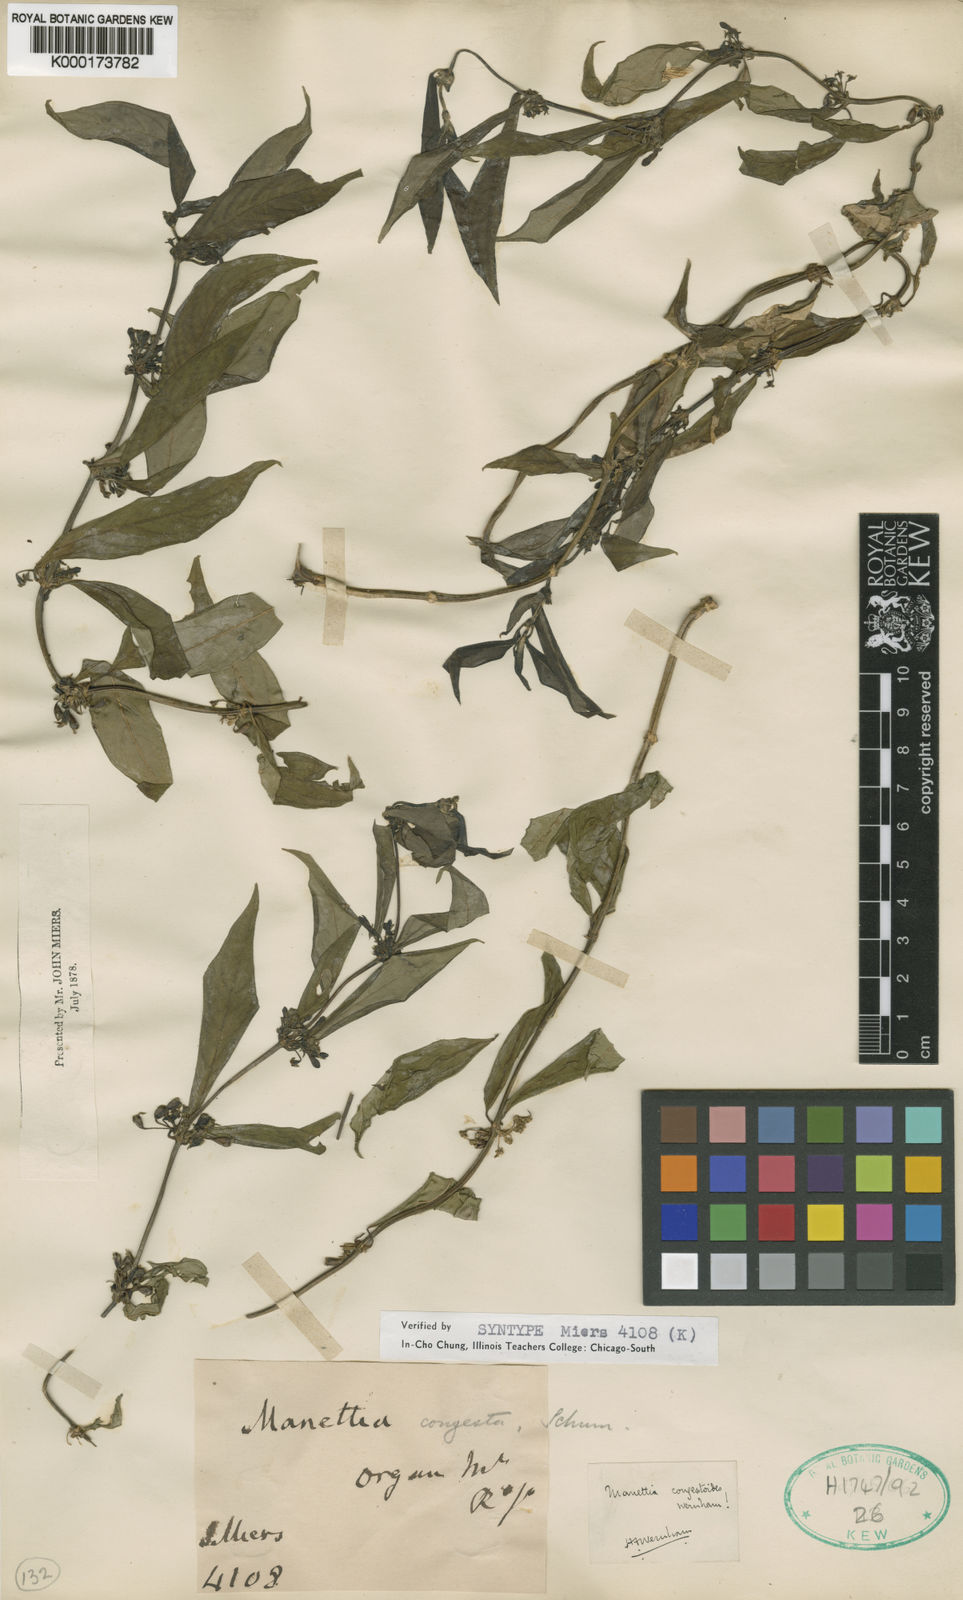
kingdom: Plantae
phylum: Tracheophyta
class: Magnoliopsida
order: Gentianales
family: Rubiaceae
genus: Manettia
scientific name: Manettia congestoides
